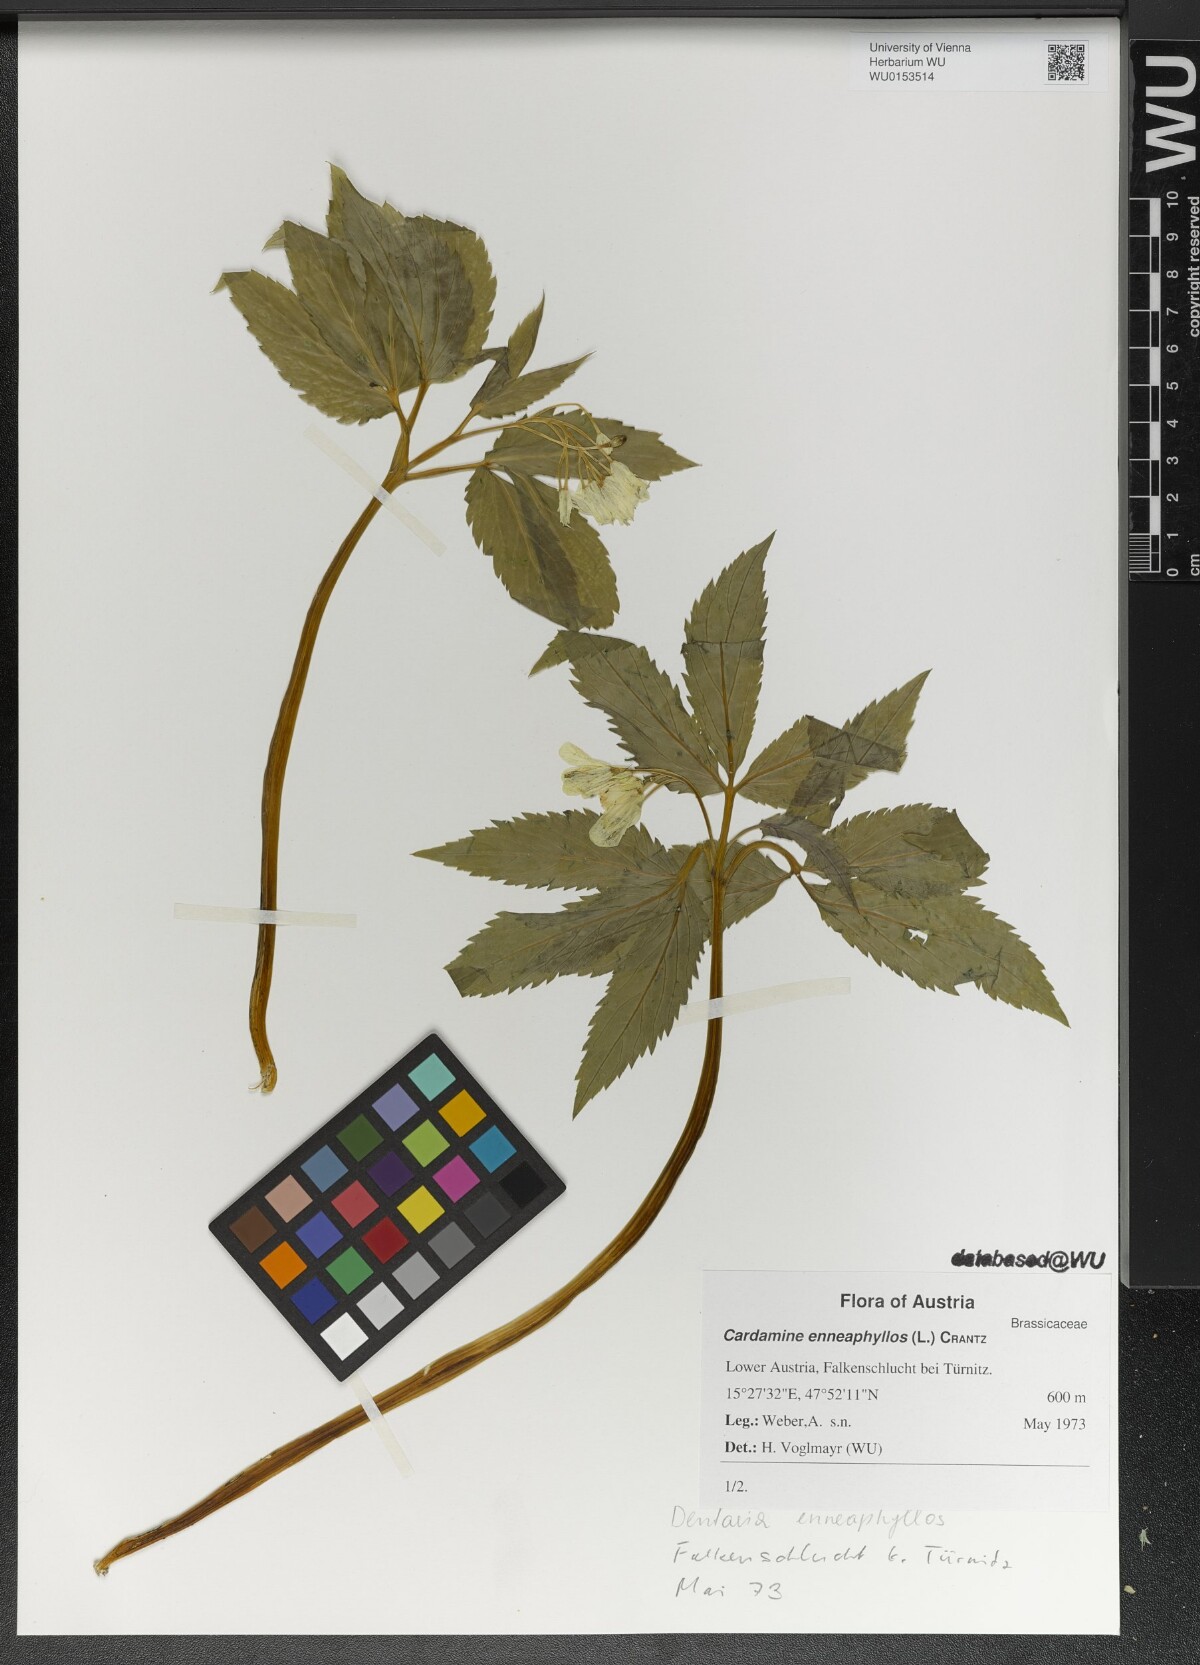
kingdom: Plantae
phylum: Tracheophyta
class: Magnoliopsida
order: Brassicales
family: Brassicaceae
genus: Cardamine
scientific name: Cardamine enneaphyllos
